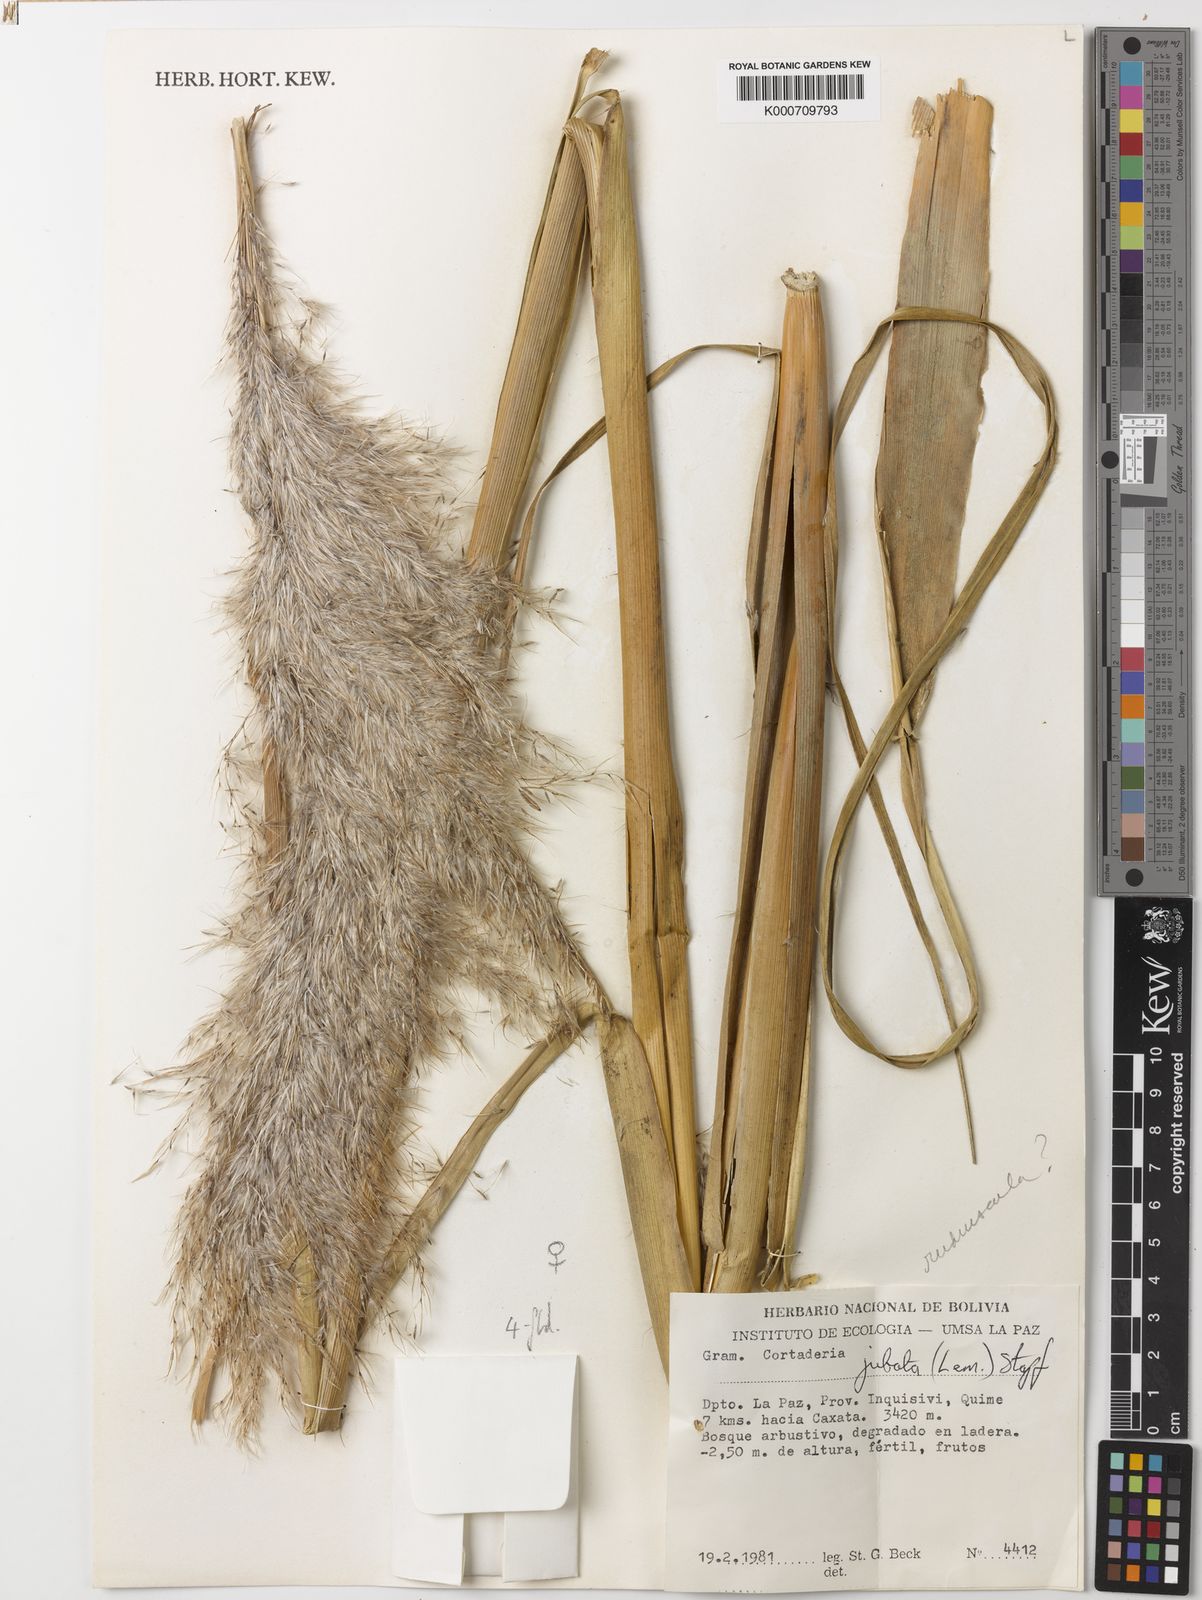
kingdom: Plantae
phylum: Tracheophyta
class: Liliopsida
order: Poales
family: Poaceae
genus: Cortaderia
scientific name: Cortaderia rudiuscula
